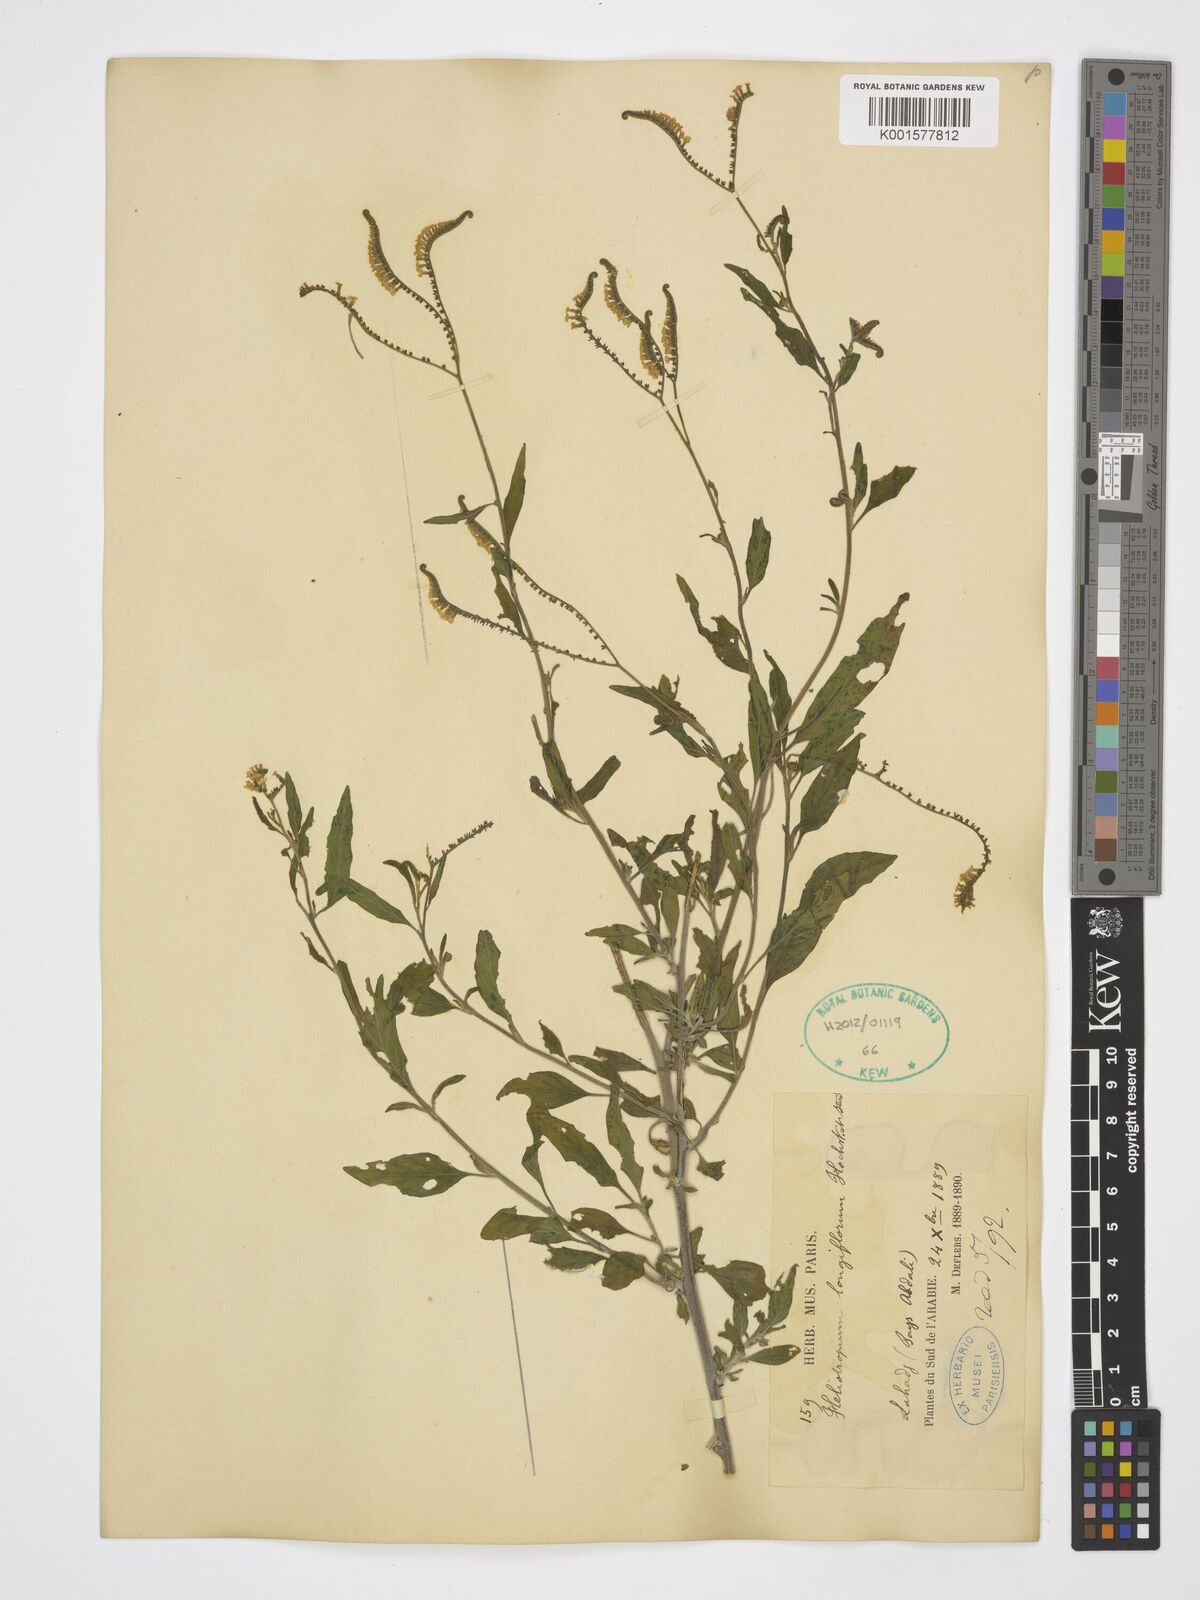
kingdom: Plantae
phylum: Tracheophyta
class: Magnoliopsida
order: Boraginales
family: Heliotropiaceae
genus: Heliotropium
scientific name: Heliotropium longiflorum
